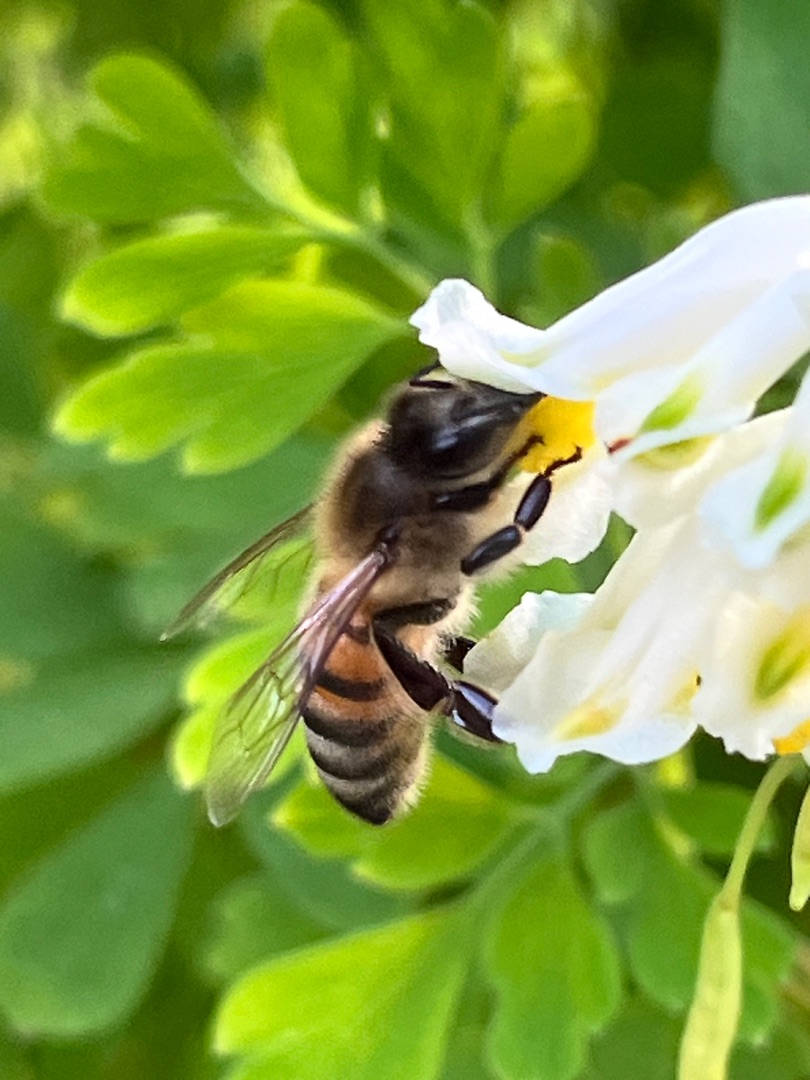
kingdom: Animalia
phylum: Arthropoda
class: Insecta
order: Hymenoptera
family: Apidae
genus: Apis
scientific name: Apis mellifera
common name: Honningbi
